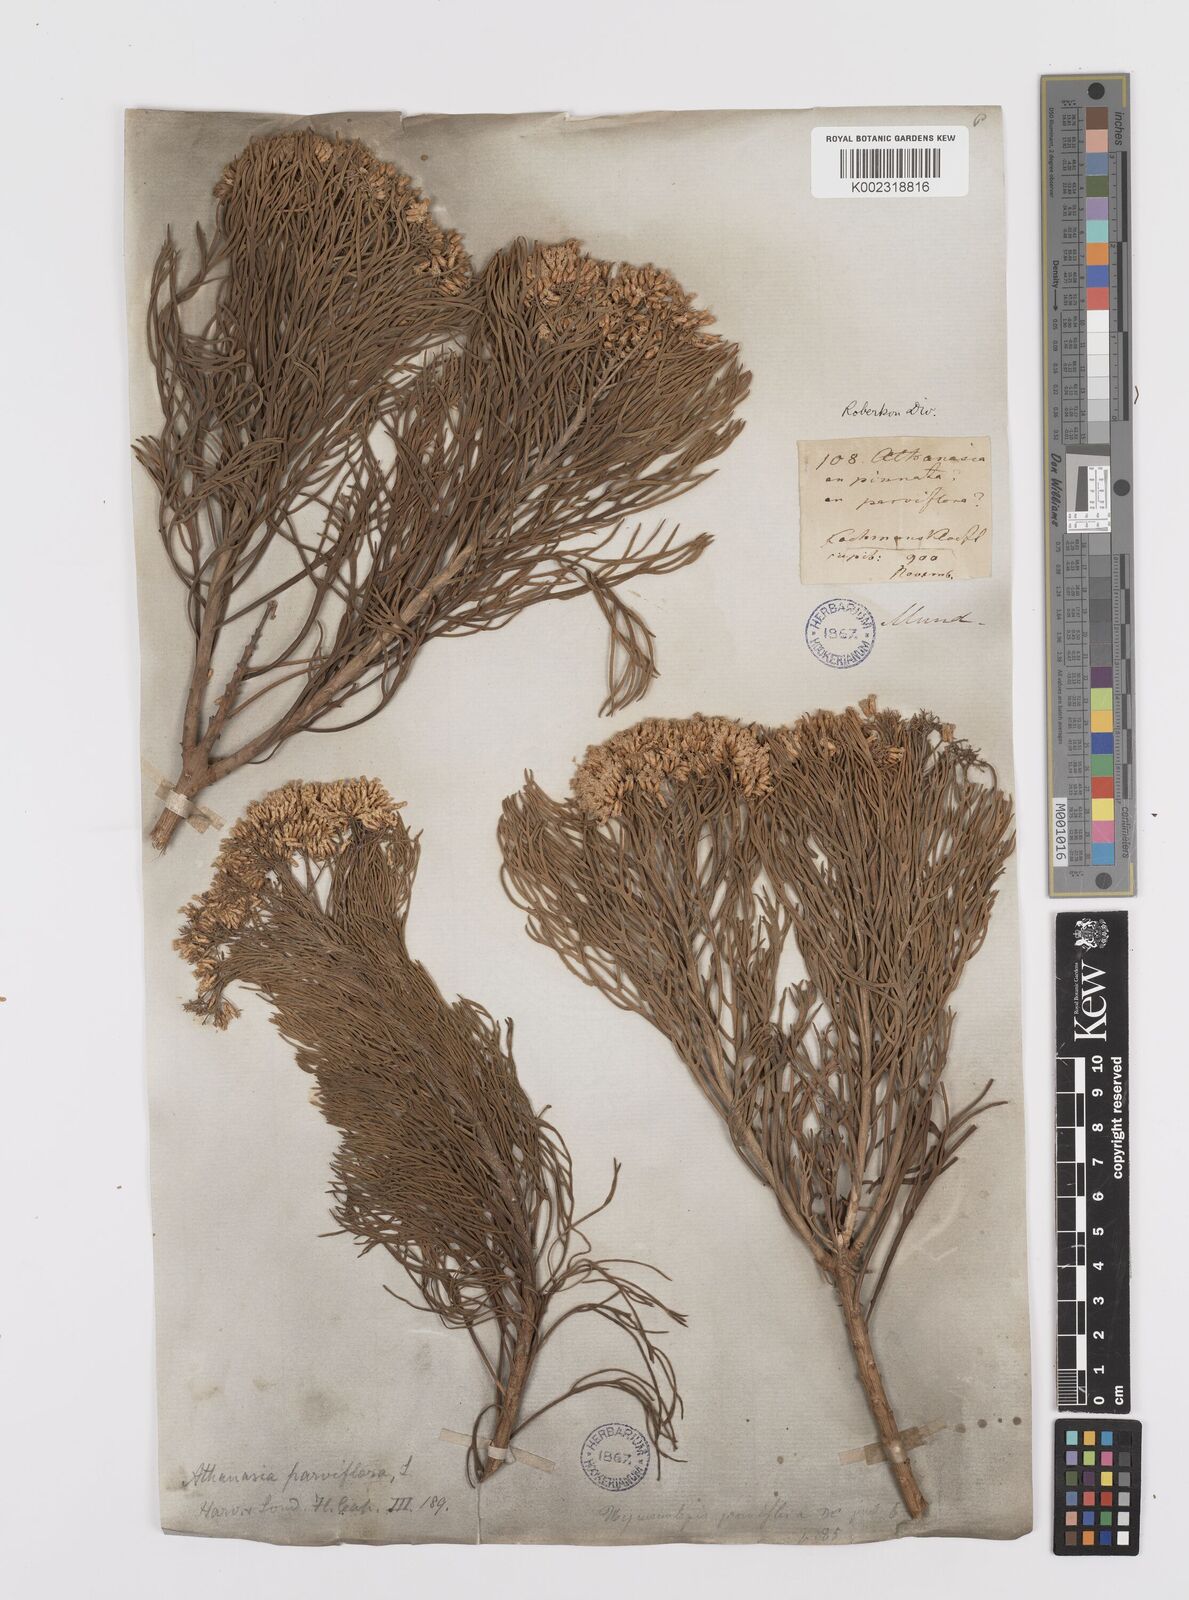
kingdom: Plantae
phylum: Tracheophyta
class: Magnoliopsida
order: Asterales
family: Asteraceae
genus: Hymenolepis
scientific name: Hymenolepis crithmifolia
